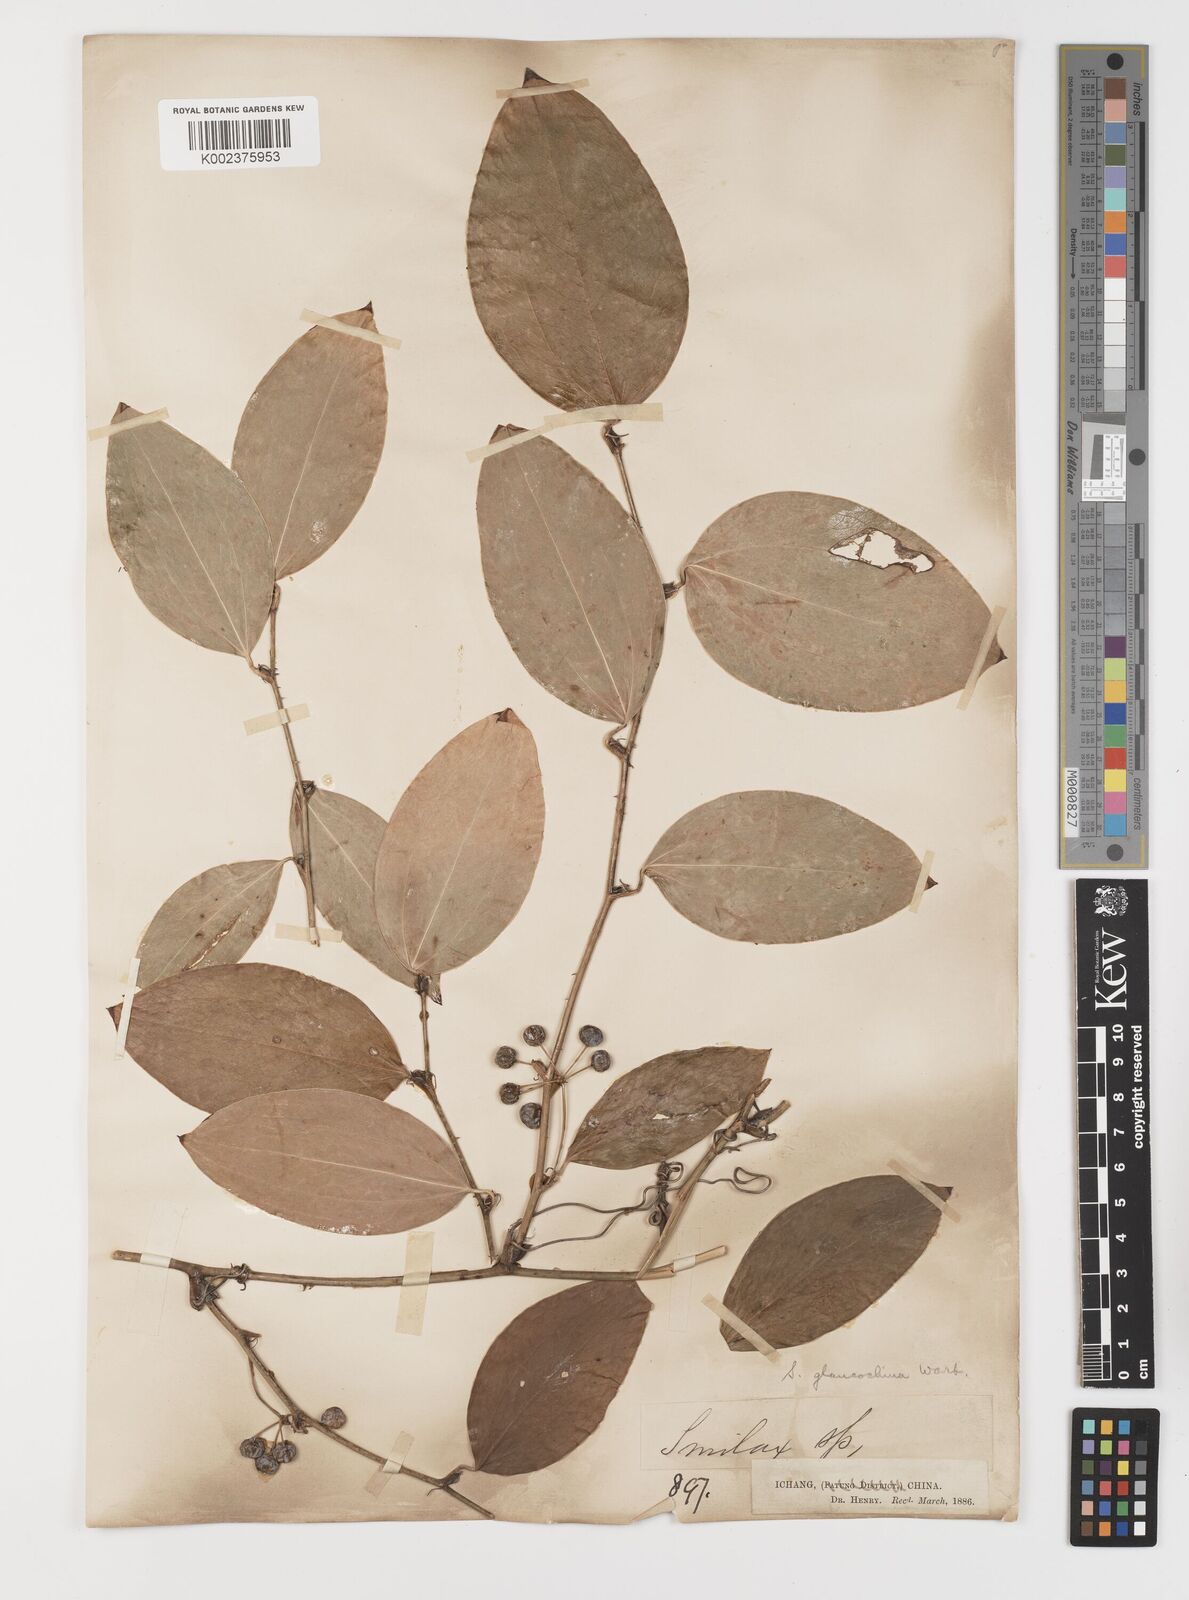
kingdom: Plantae
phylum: Tracheophyta
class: Liliopsida
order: Liliales
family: Smilacaceae
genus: Smilax
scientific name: Smilax glaucochina
